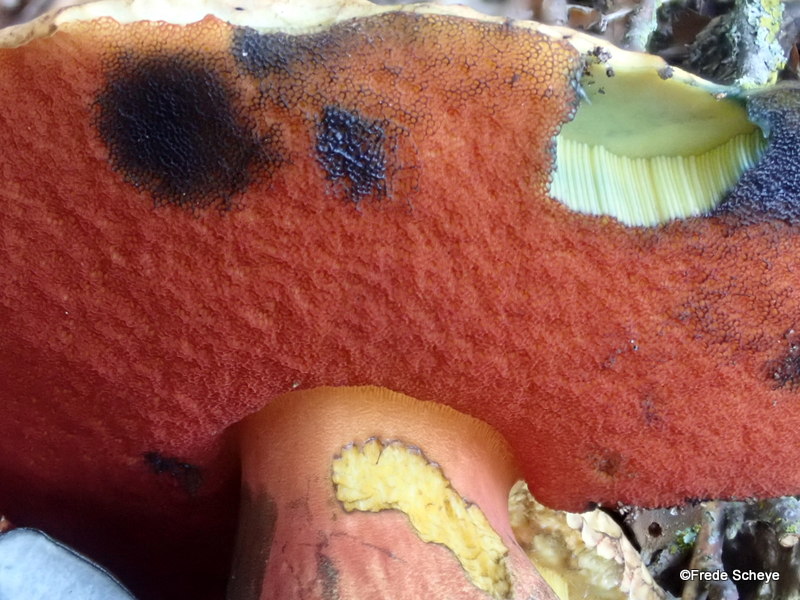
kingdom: Fungi
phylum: Basidiomycota
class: Agaricomycetes
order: Boletales
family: Boletaceae
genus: Neoboletus
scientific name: Neoboletus erythropus
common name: punktstokket indigorørhat
